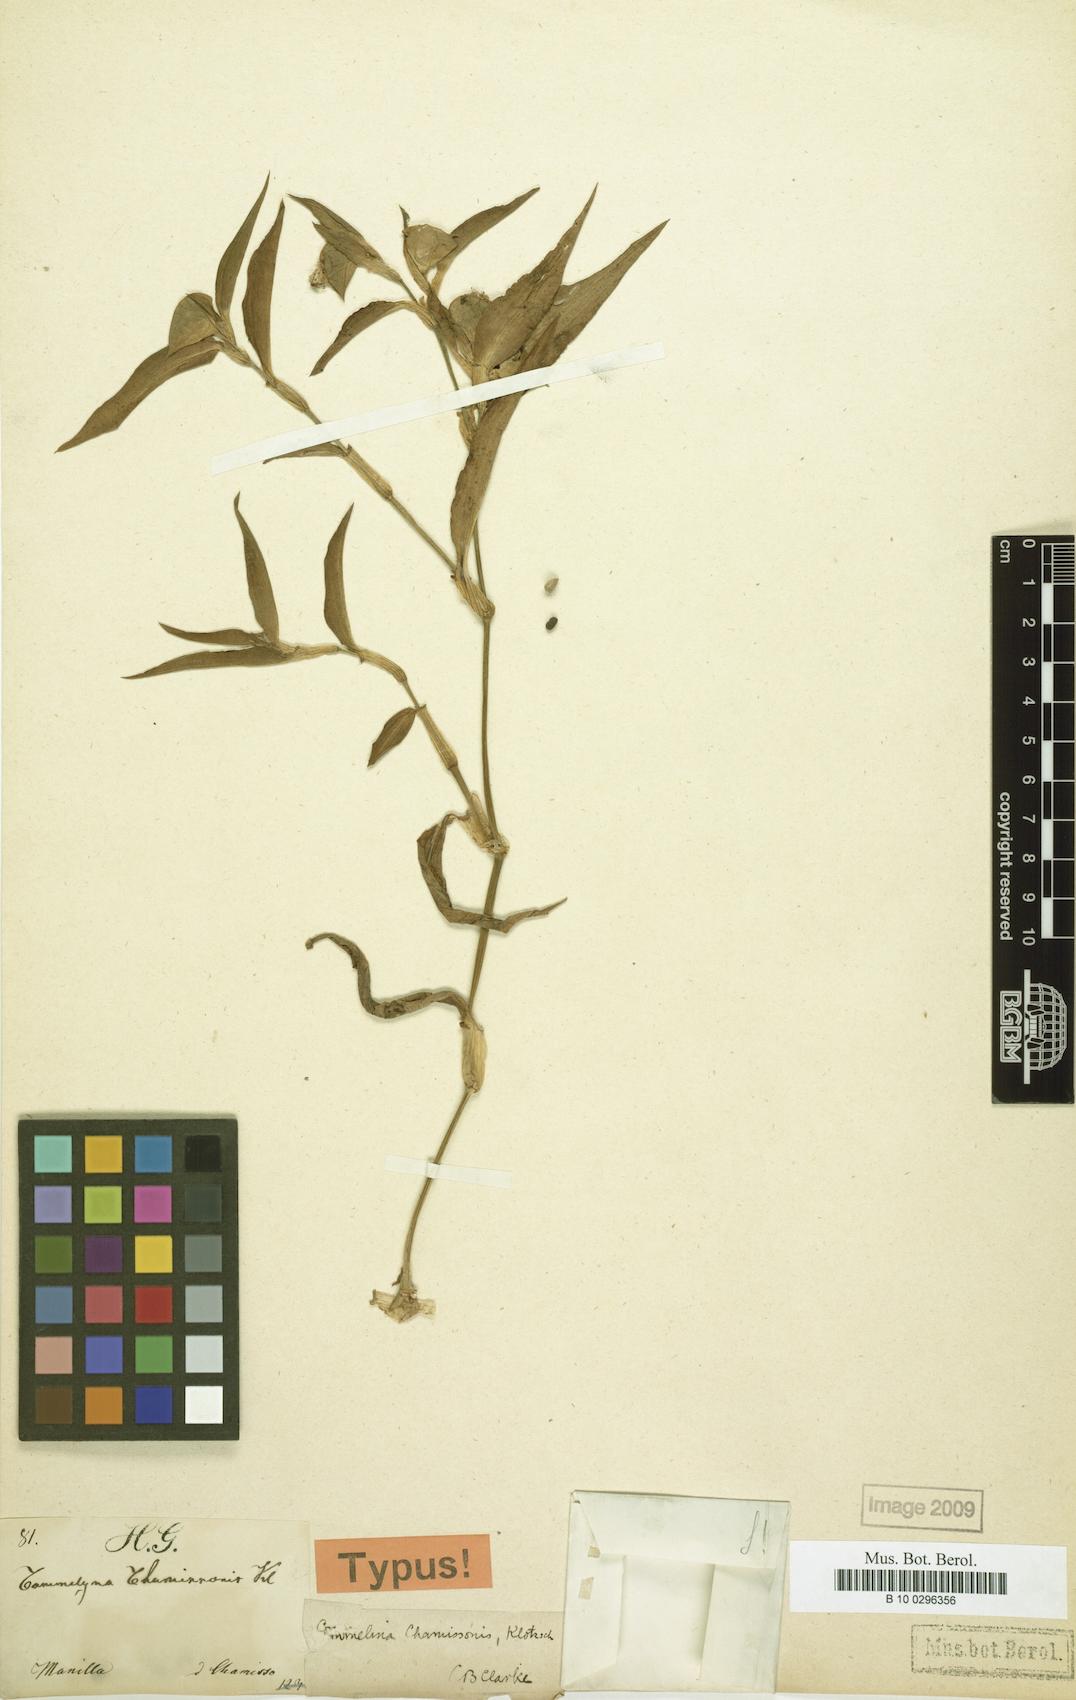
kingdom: Plantae
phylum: Tracheophyta
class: Liliopsida
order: Commelinales
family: Commelinaceae
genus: Commelina
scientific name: Commelina chamissonis
